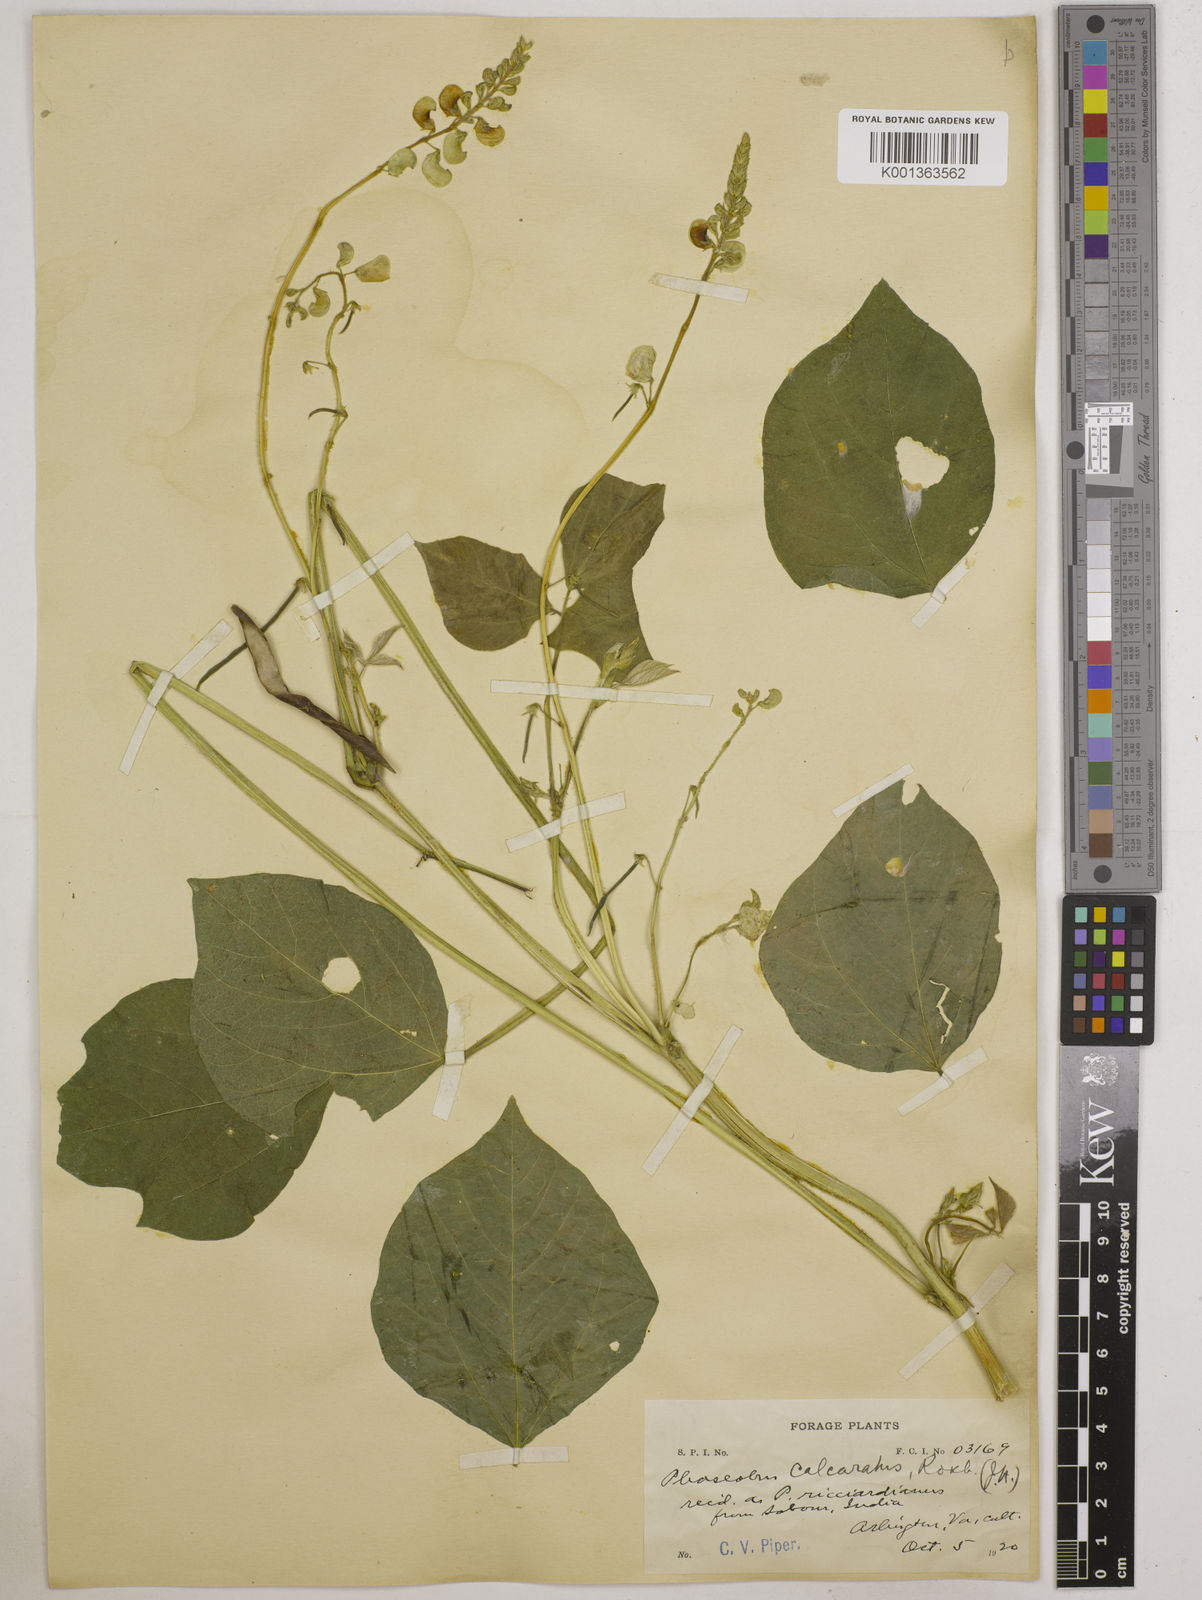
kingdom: Plantae
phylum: Tracheophyta
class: Magnoliopsida
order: Fabales
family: Fabaceae
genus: Vigna
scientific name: Vigna umbellata
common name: Oriental-bean
